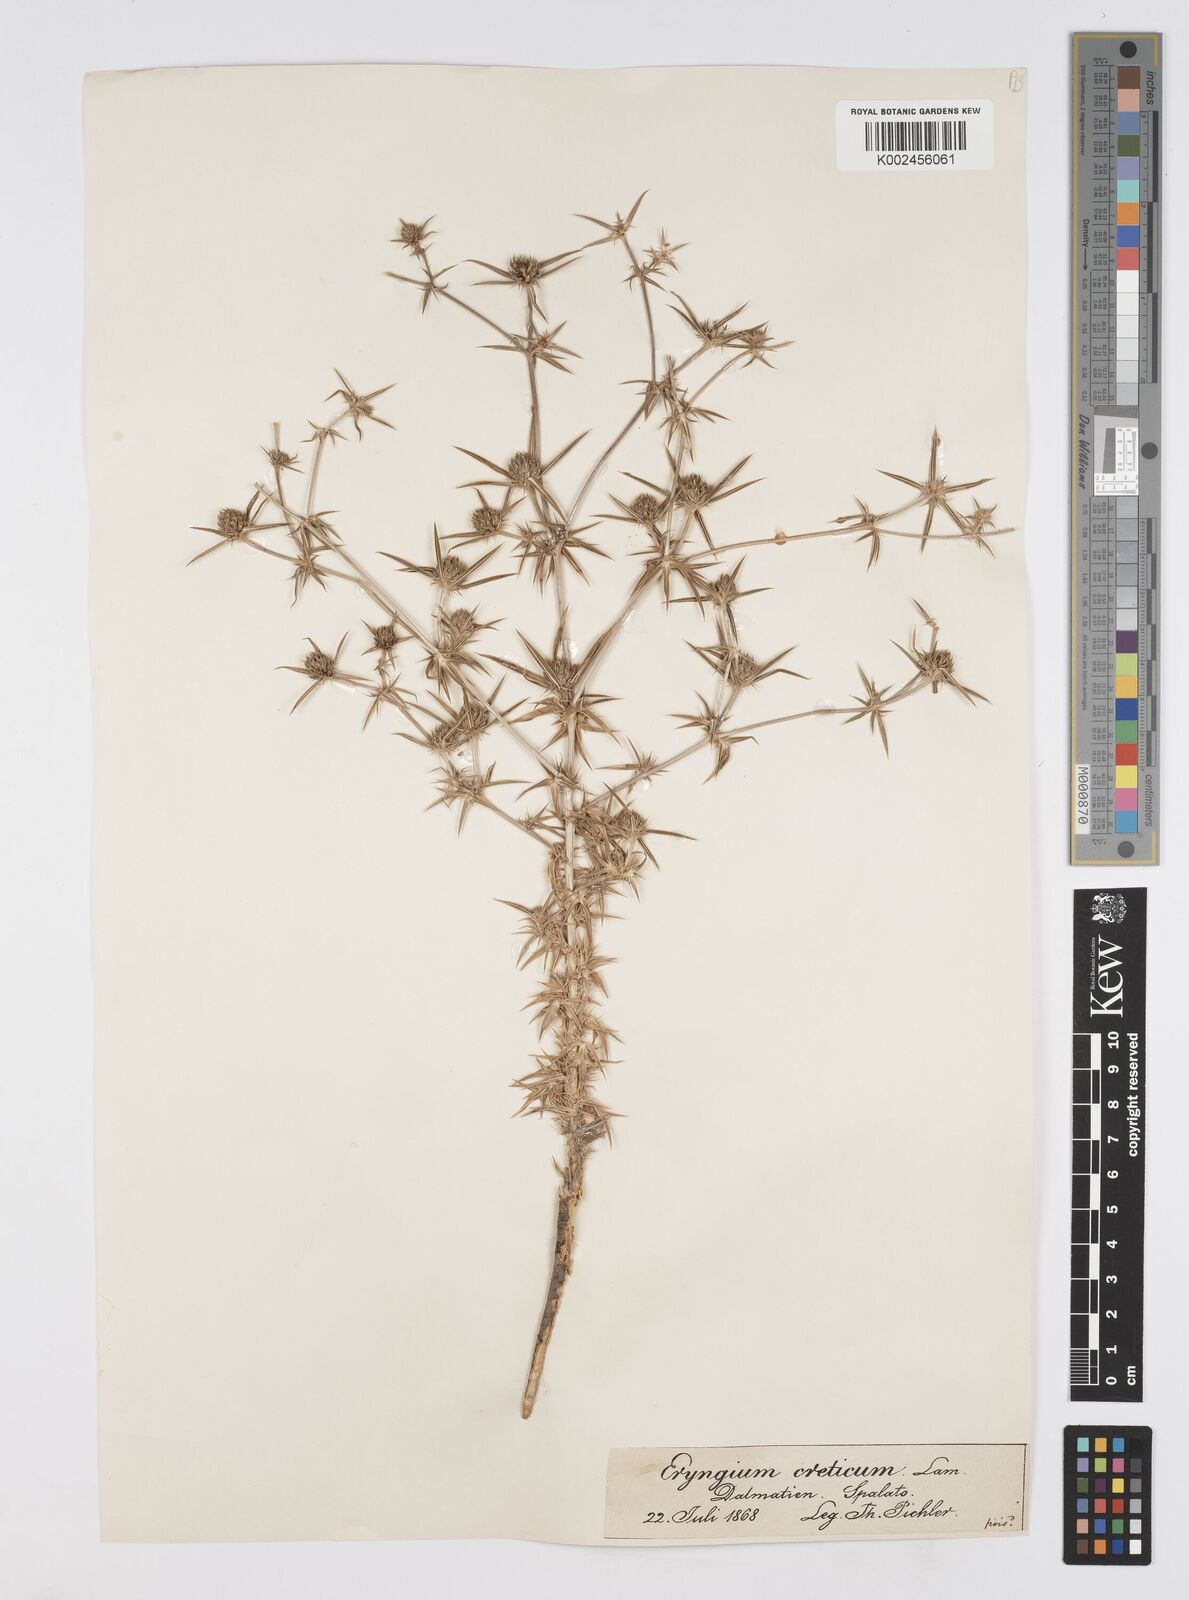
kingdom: Plantae
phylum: Tracheophyta
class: Magnoliopsida
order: Apiales
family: Apiaceae
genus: Eryngium
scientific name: Eryngium creticum
